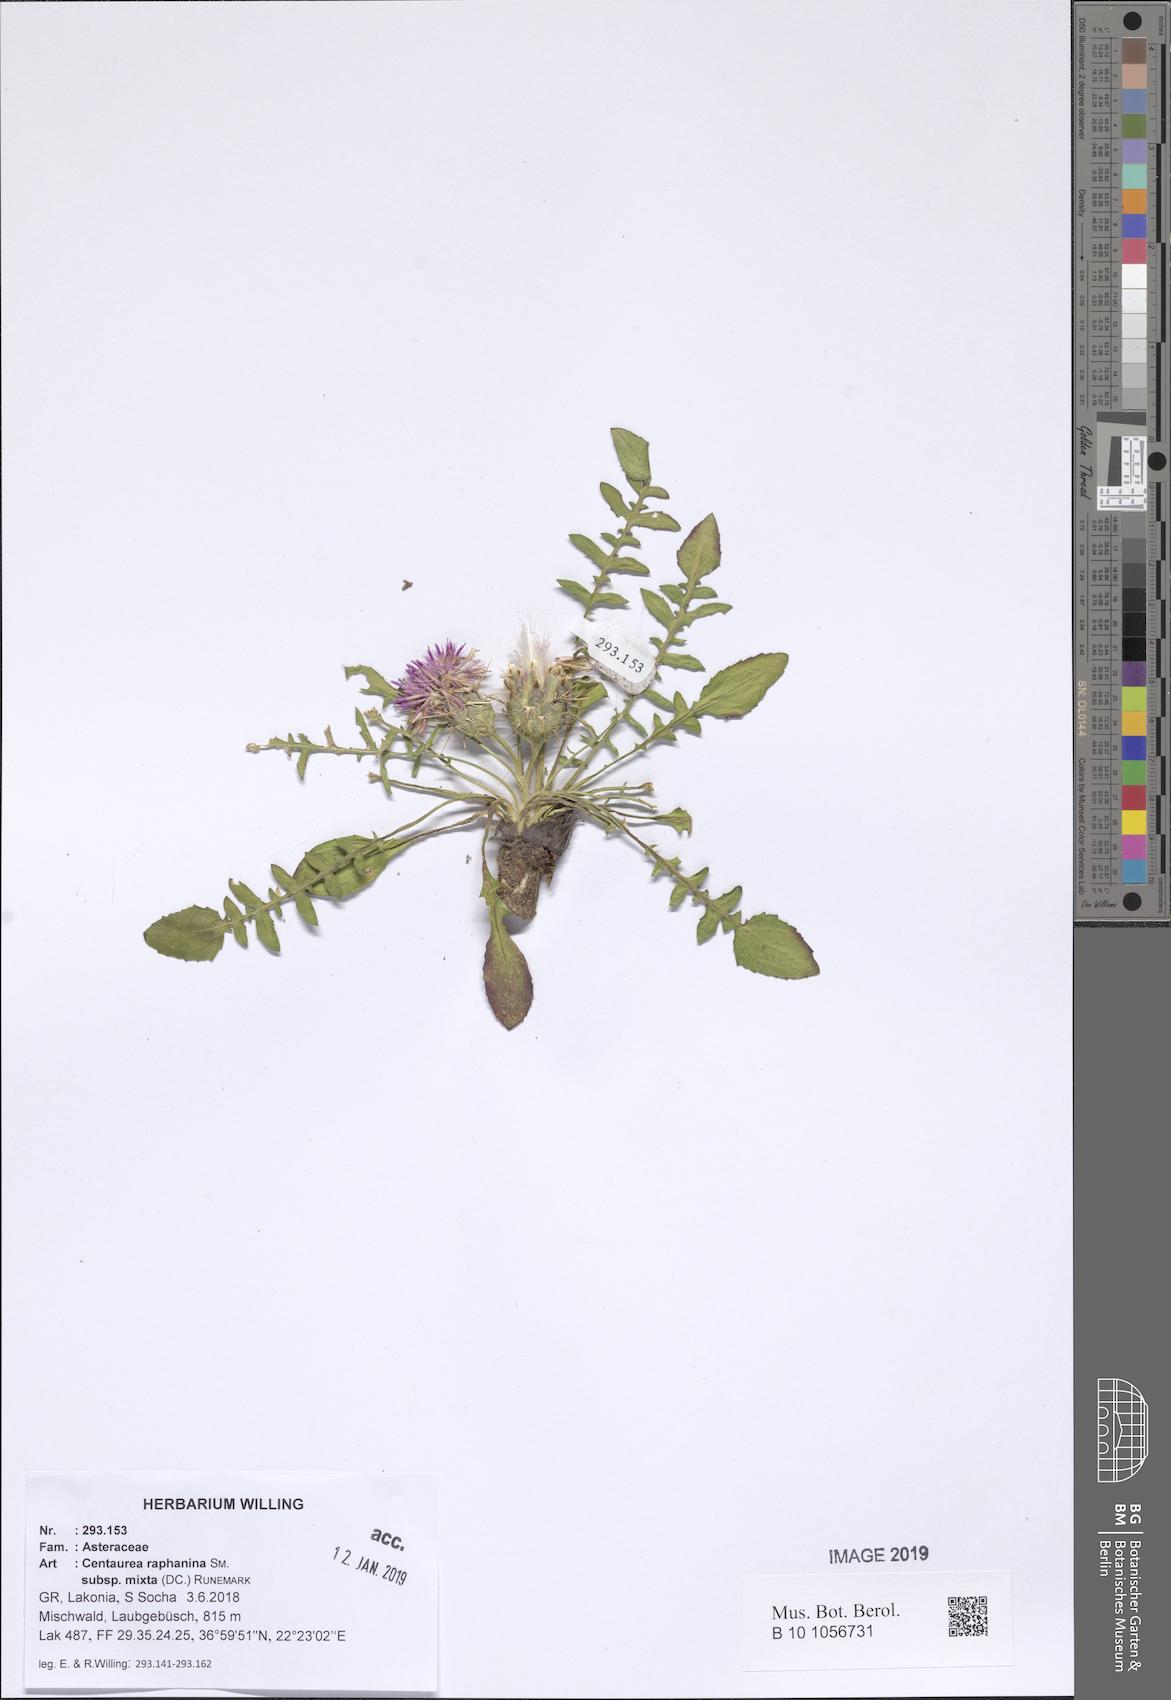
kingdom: Plantae
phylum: Tracheophyta
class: Magnoliopsida
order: Asterales
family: Asteraceae
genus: Centaurea
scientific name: Centaurea raphanina
